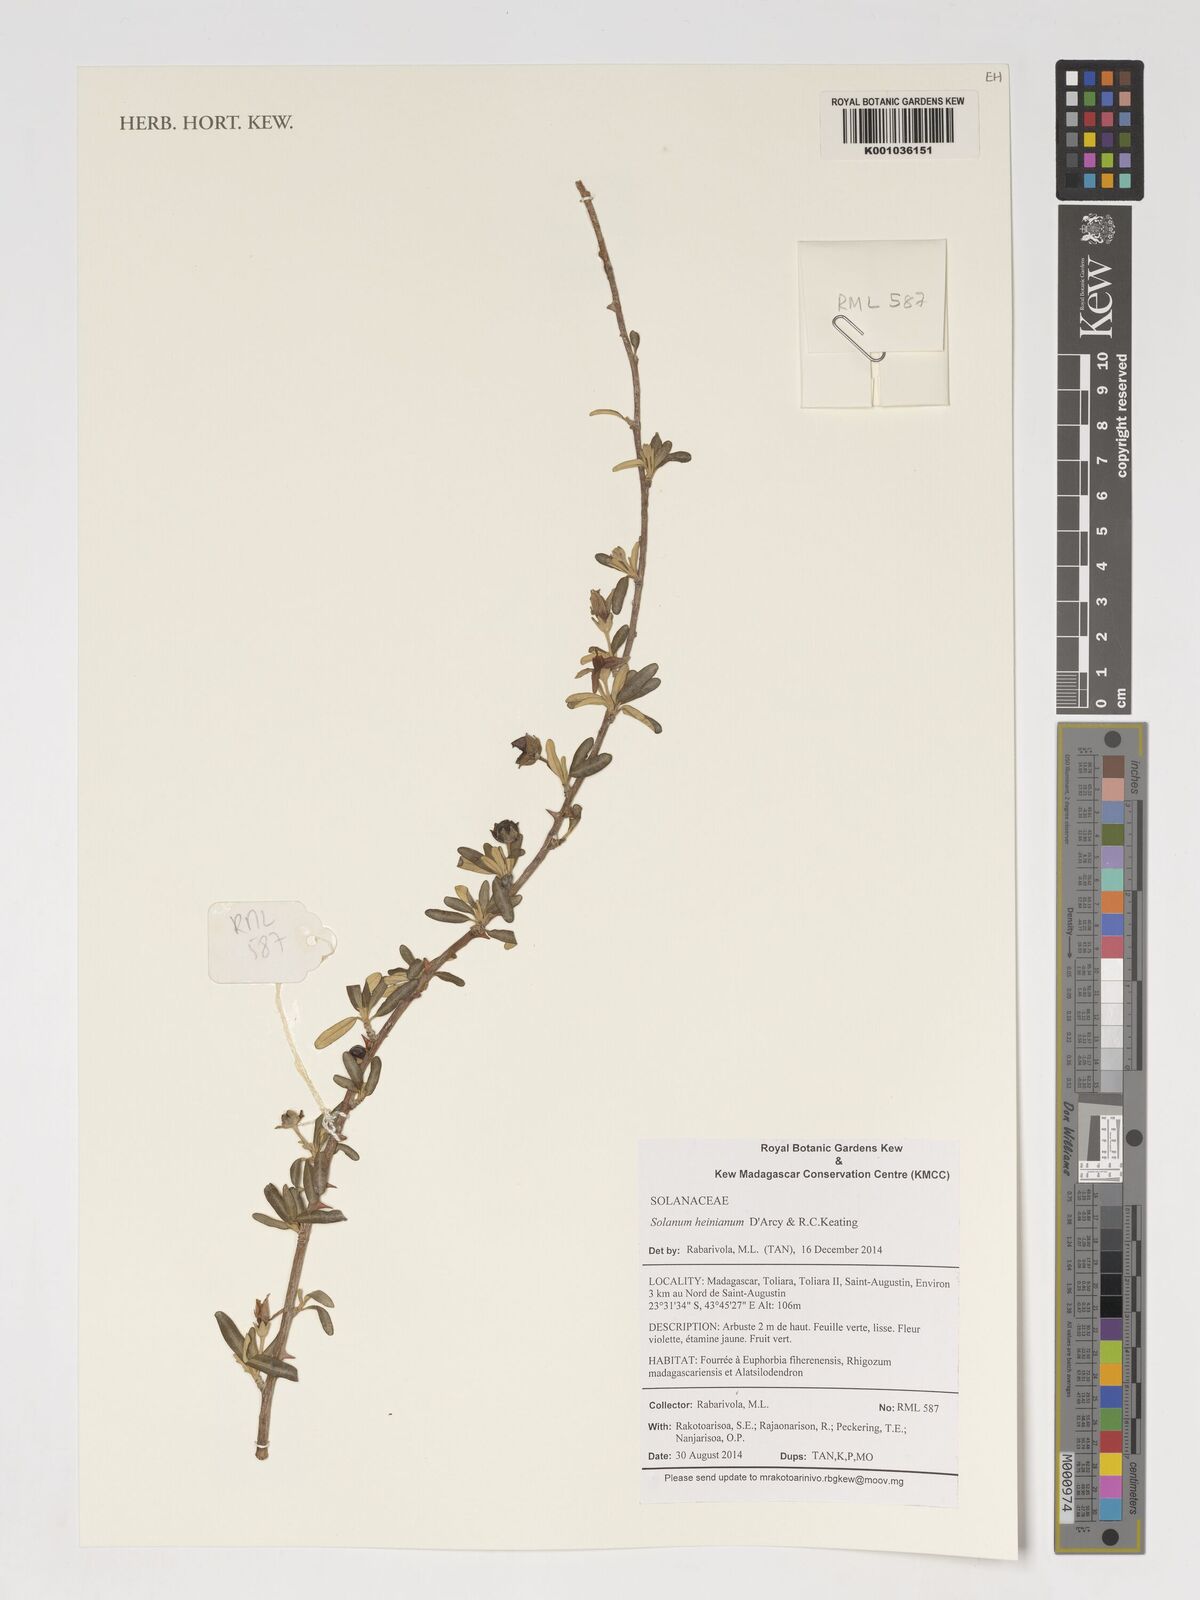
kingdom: Plantae
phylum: Tracheophyta
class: Magnoliopsida
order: Solanales
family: Solanaceae
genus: Solanum
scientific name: Solanum heinianum
